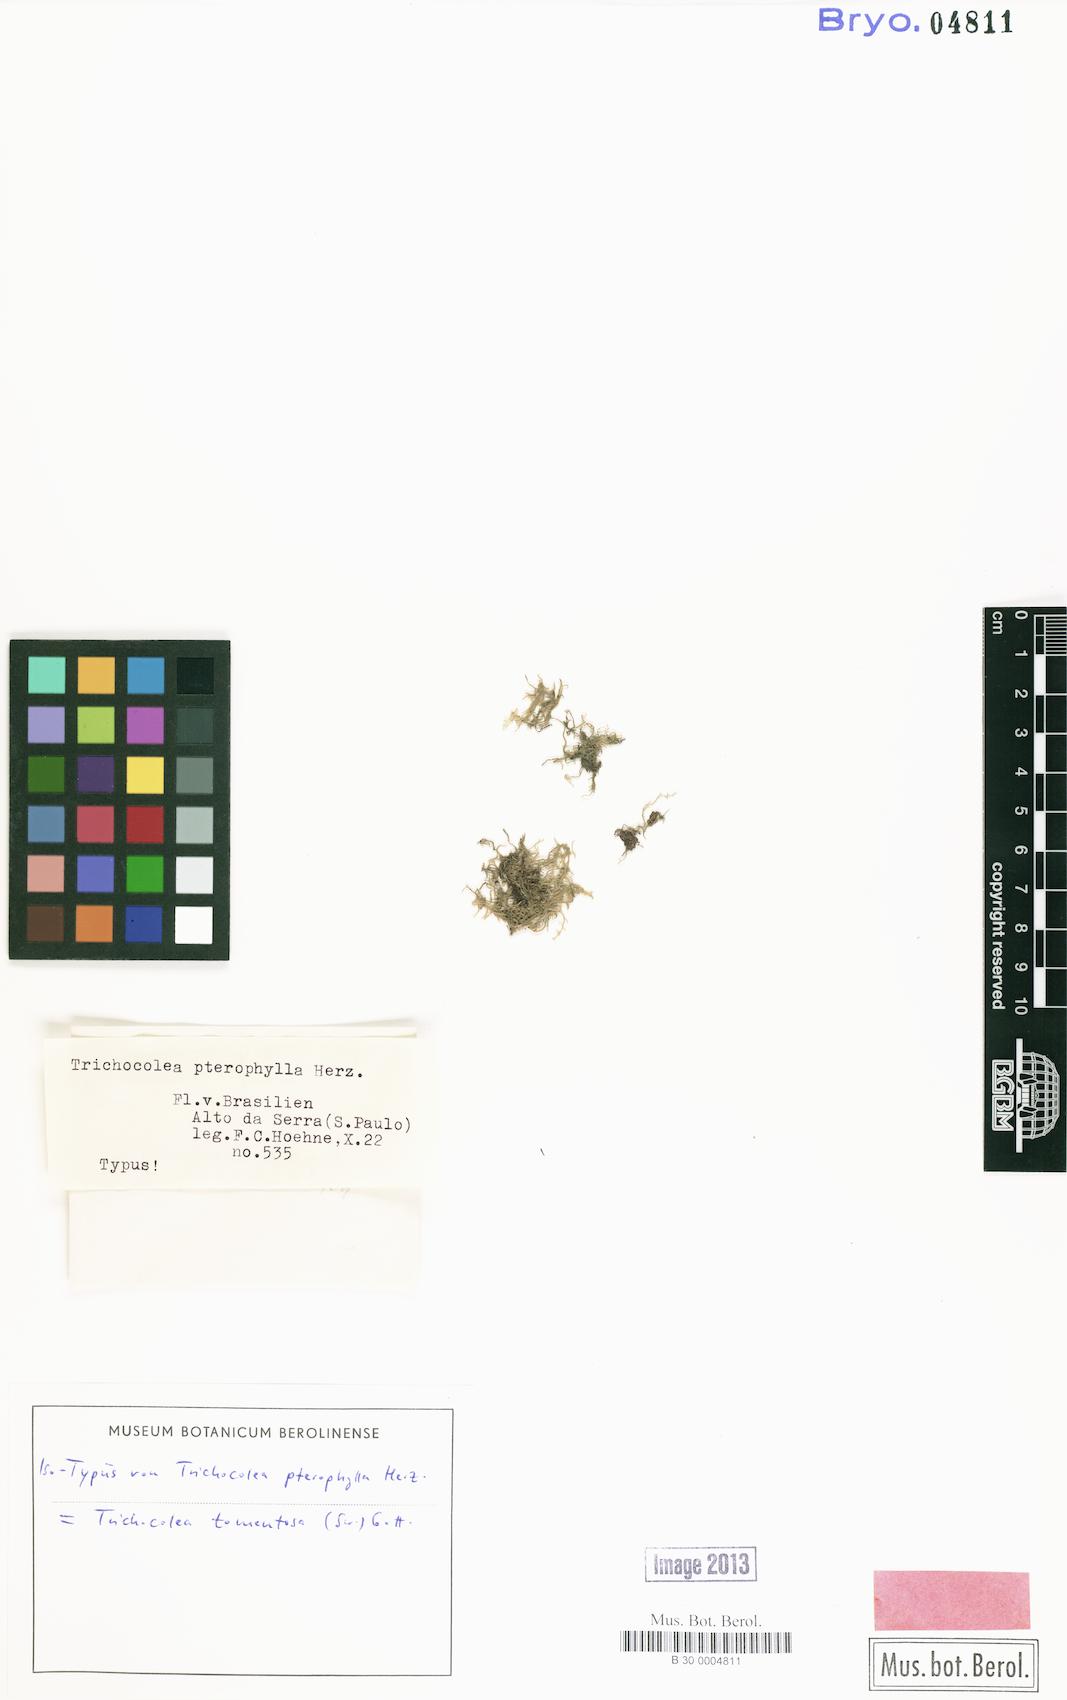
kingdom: Plantae
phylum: Marchantiophyta
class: Jungermanniopsida
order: Jungermanniales
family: Trichocoleaceae
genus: Leiomitra
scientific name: Leiomitra tomentosa
